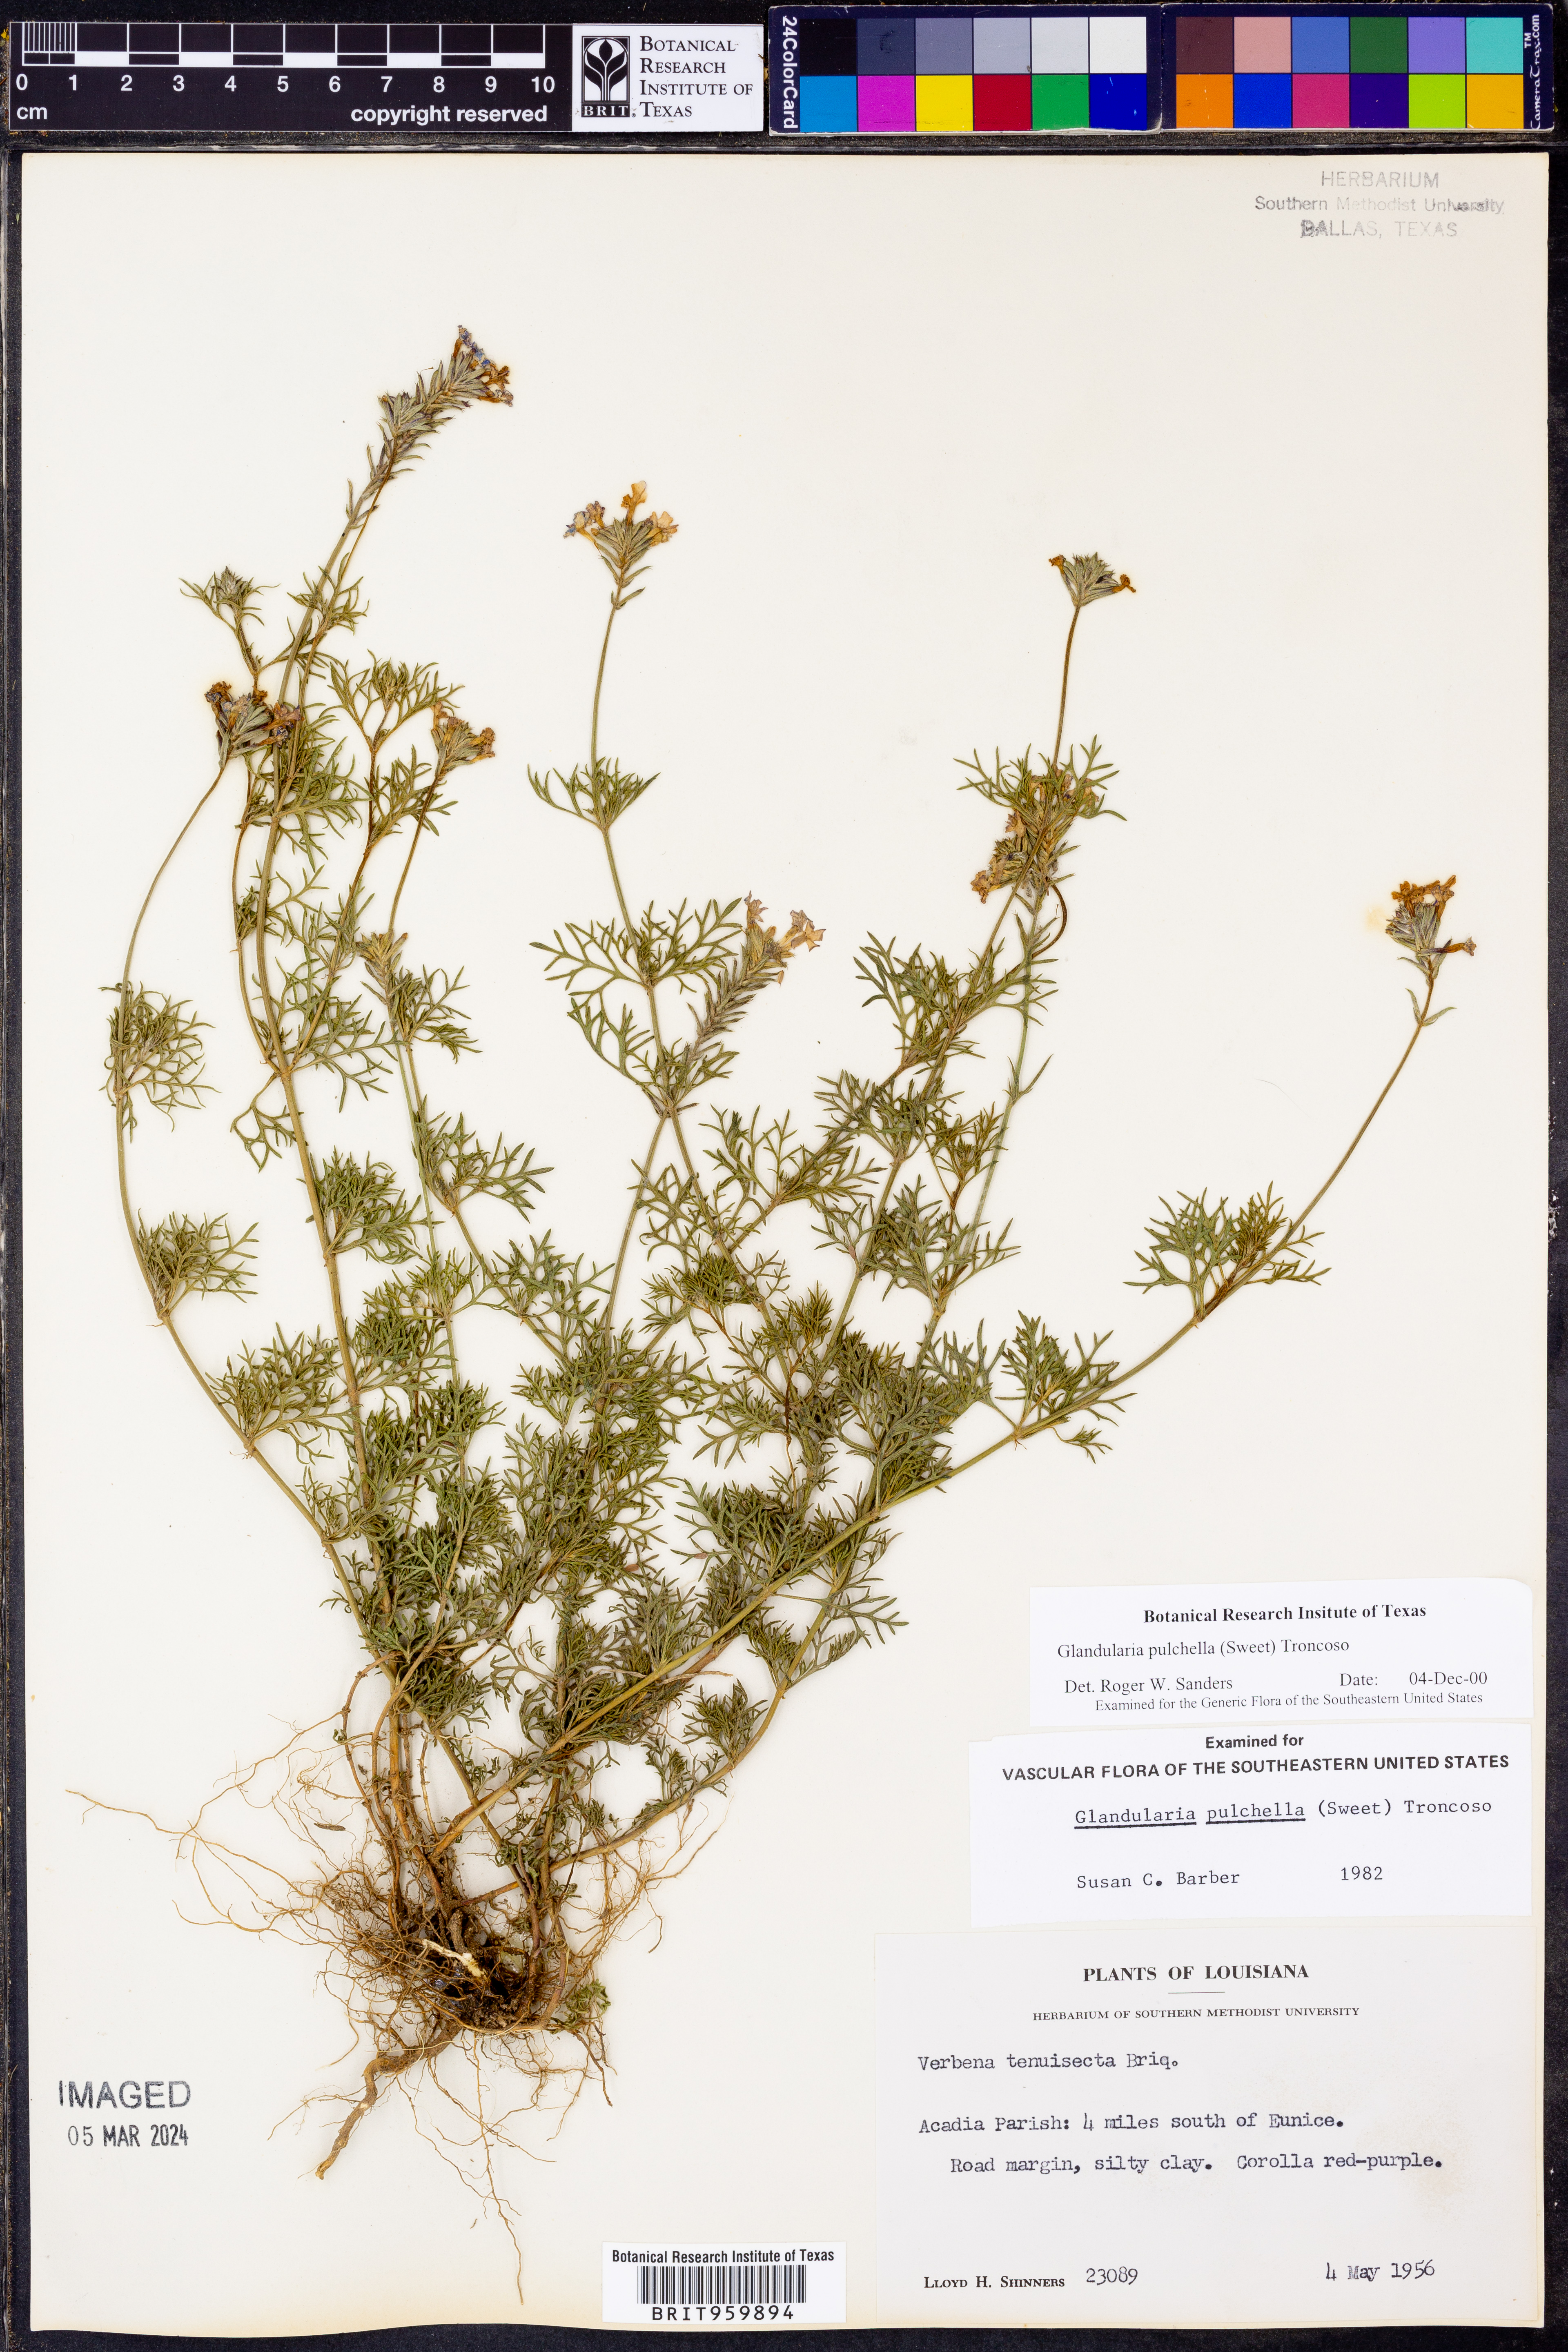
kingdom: Plantae
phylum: Tracheophyta
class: Magnoliopsida
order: Lamiales
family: Verbenaceae
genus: Verbena
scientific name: Verbena tenera
